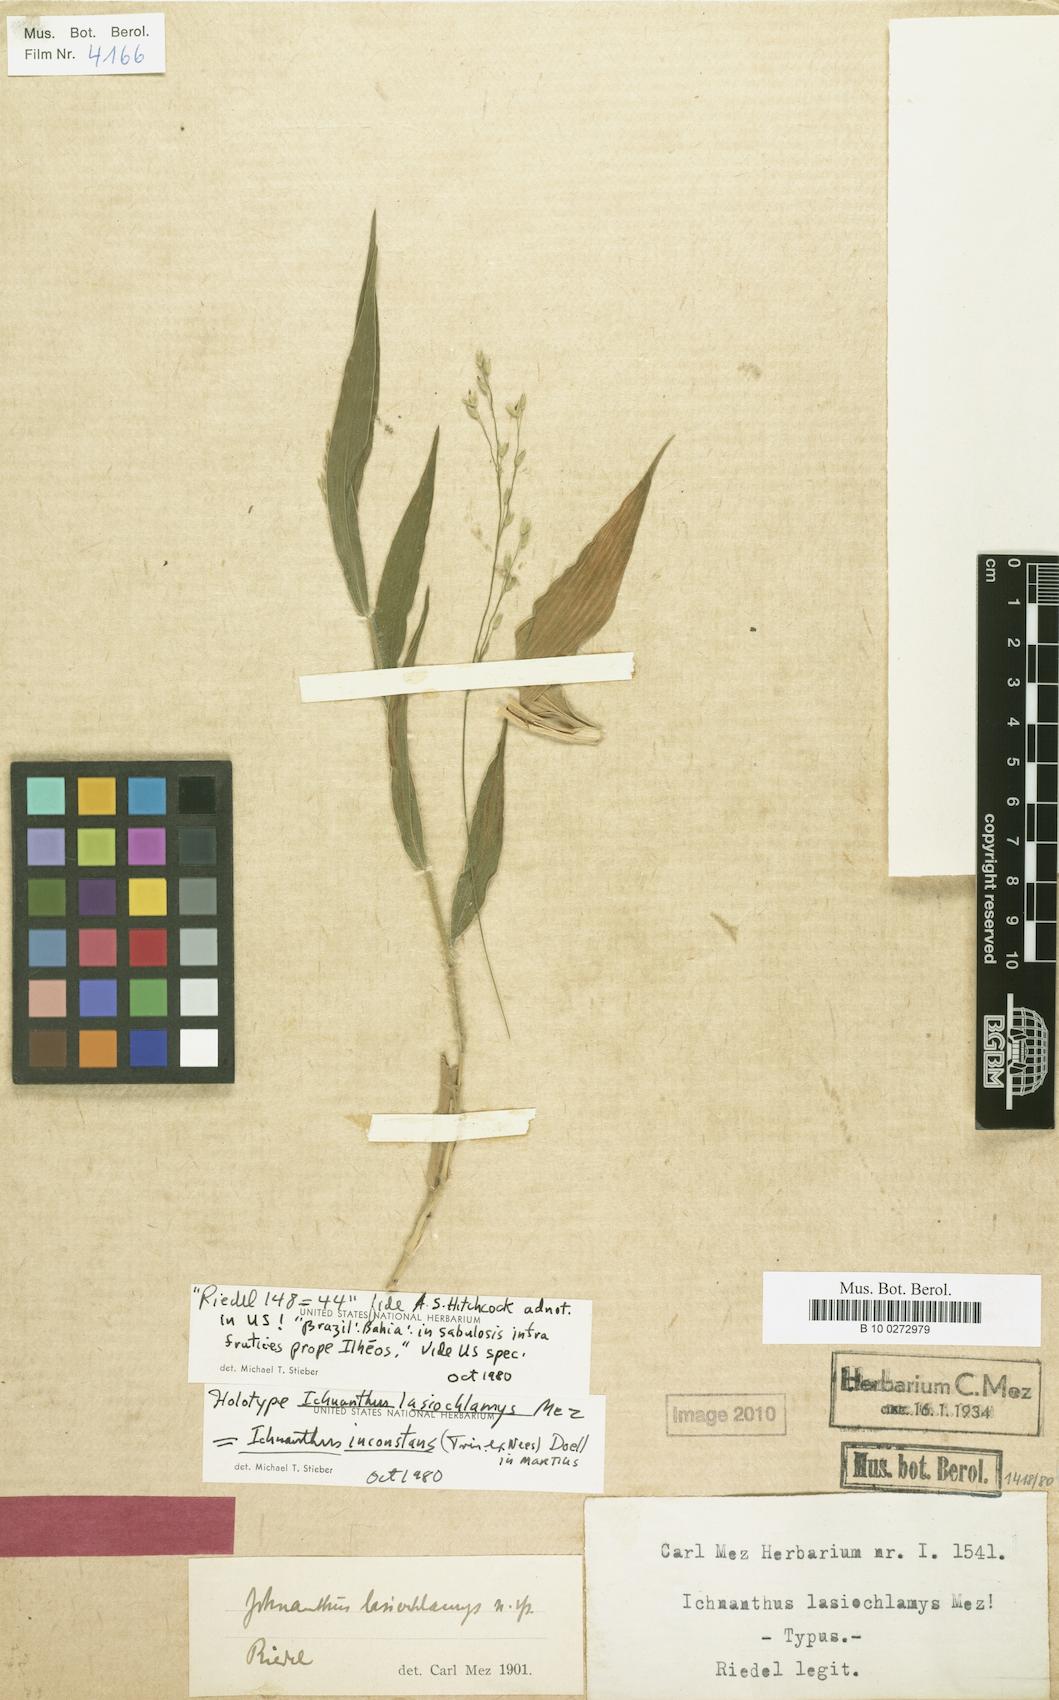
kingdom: Plantae
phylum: Tracheophyta
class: Liliopsida
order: Poales
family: Poaceae
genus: Ichnanthus
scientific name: Ichnanthus inconstans
